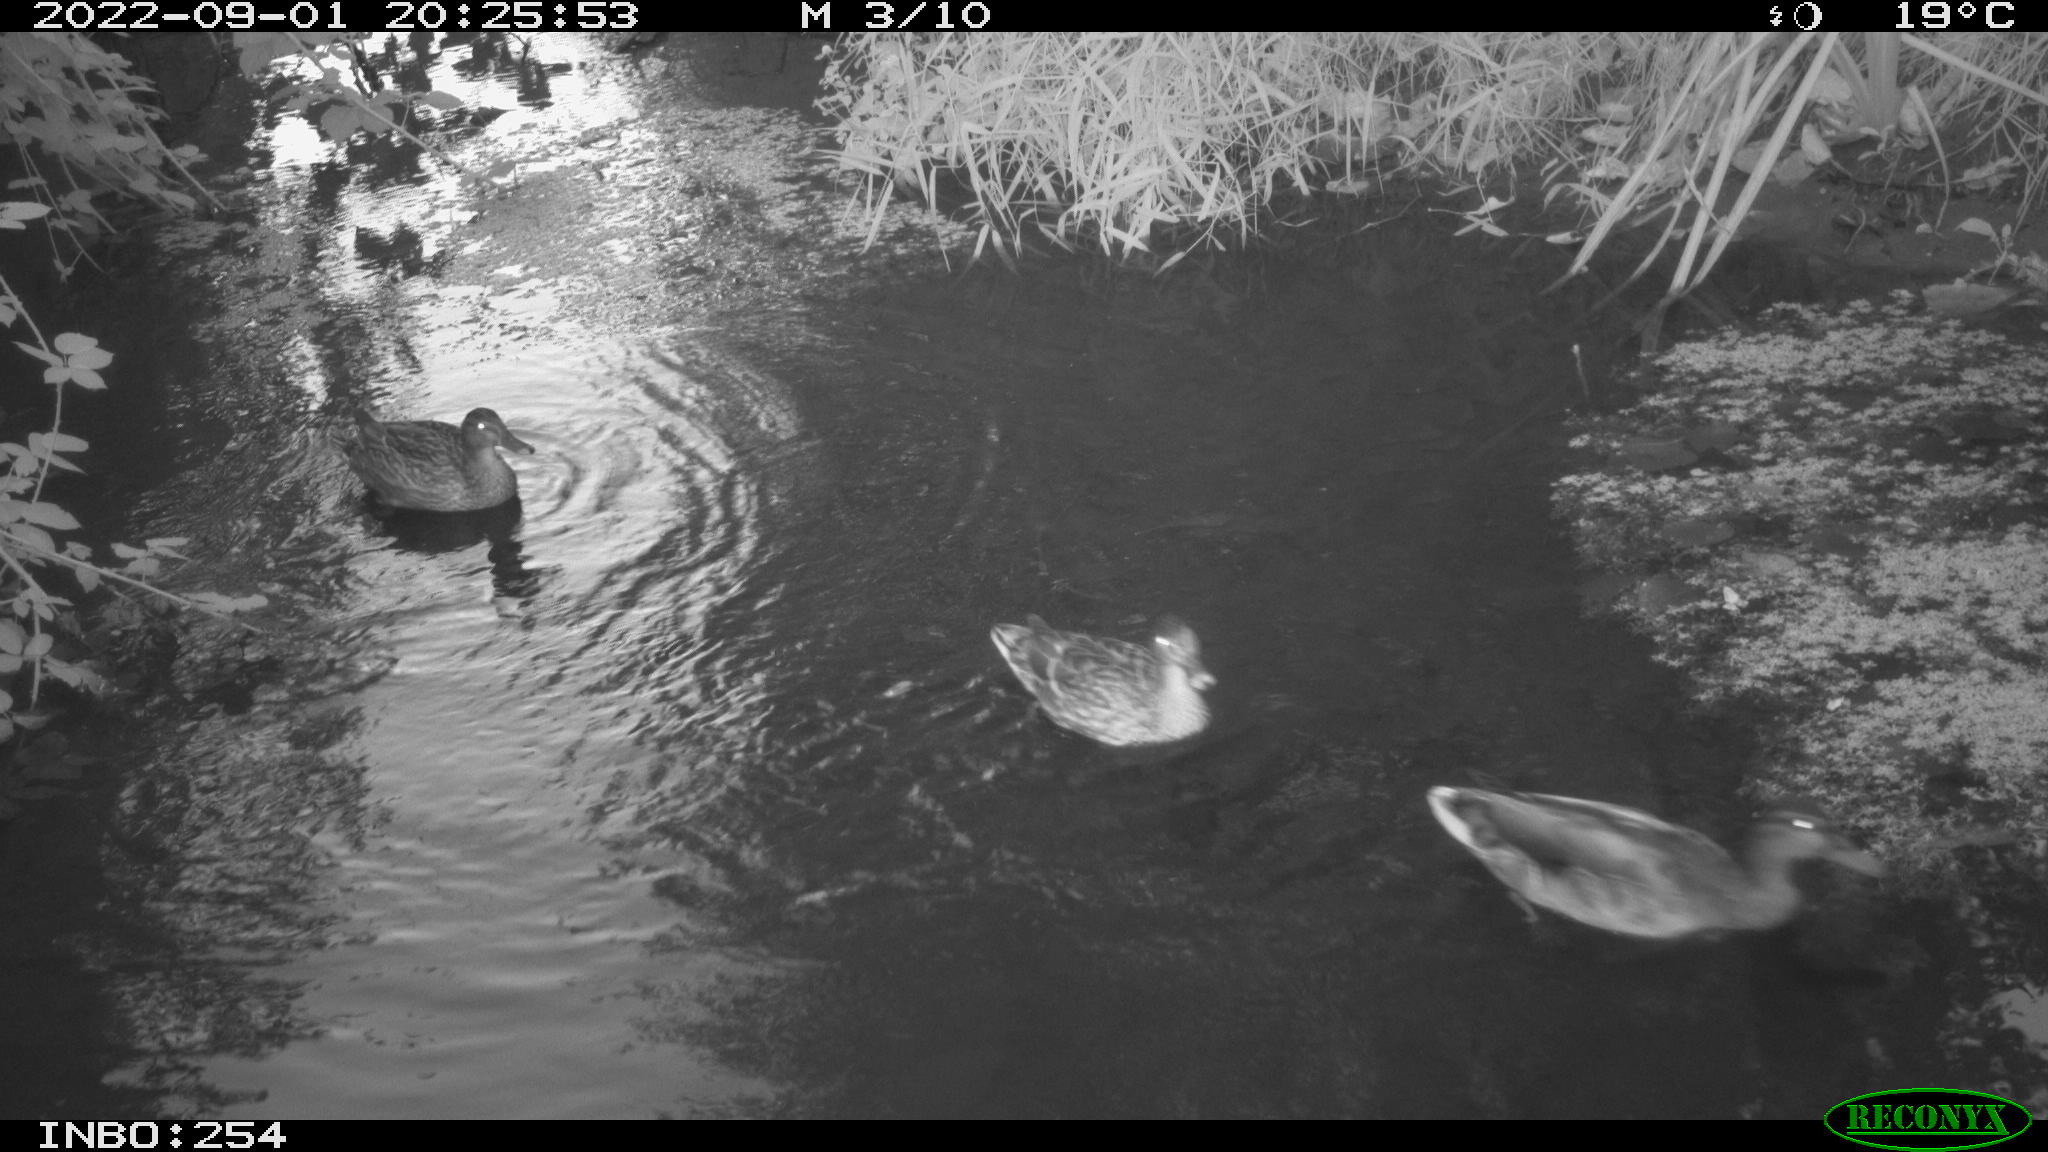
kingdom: Animalia
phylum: Chordata
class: Aves
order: Anseriformes
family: Anatidae
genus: Anas
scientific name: Anas platyrhynchos
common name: Mallard
